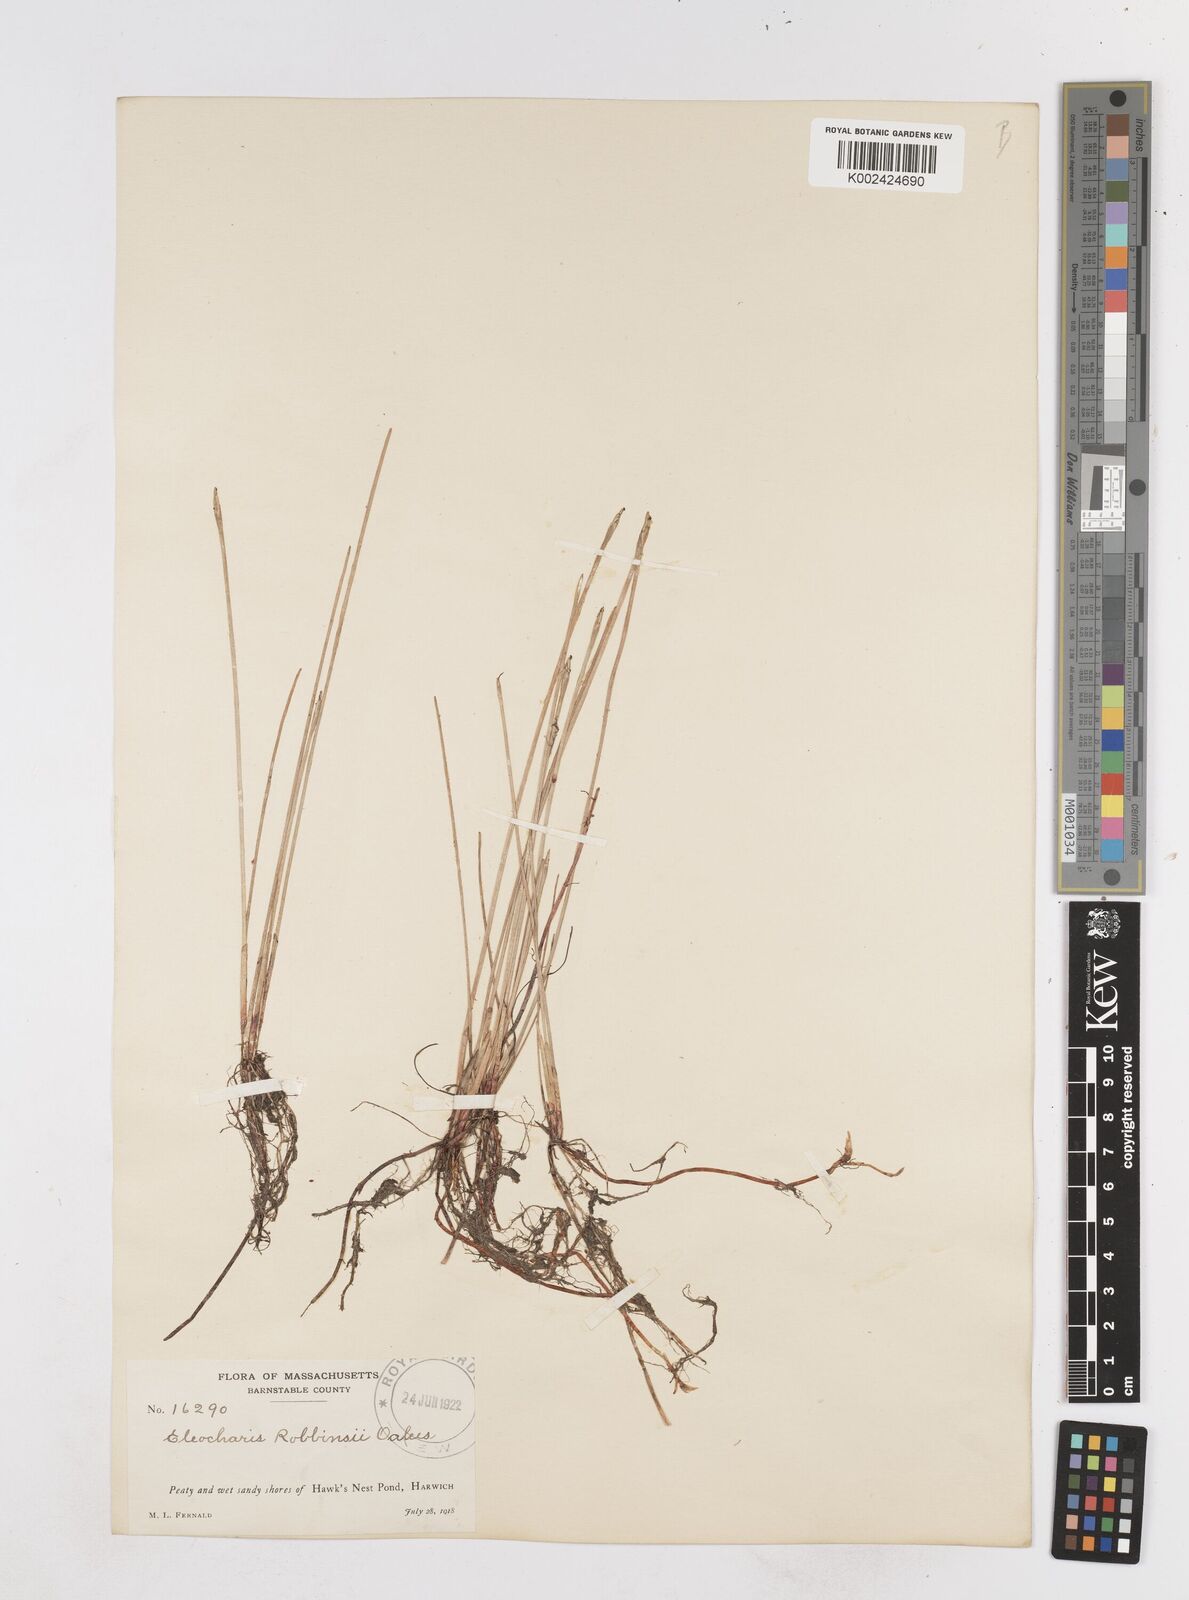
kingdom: Plantae
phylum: Tracheophyta
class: Liliopsida
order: Poales
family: Cyperaceae
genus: Eleocharis
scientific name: Eleocharis robbinsii
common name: Robbins' spikerush
